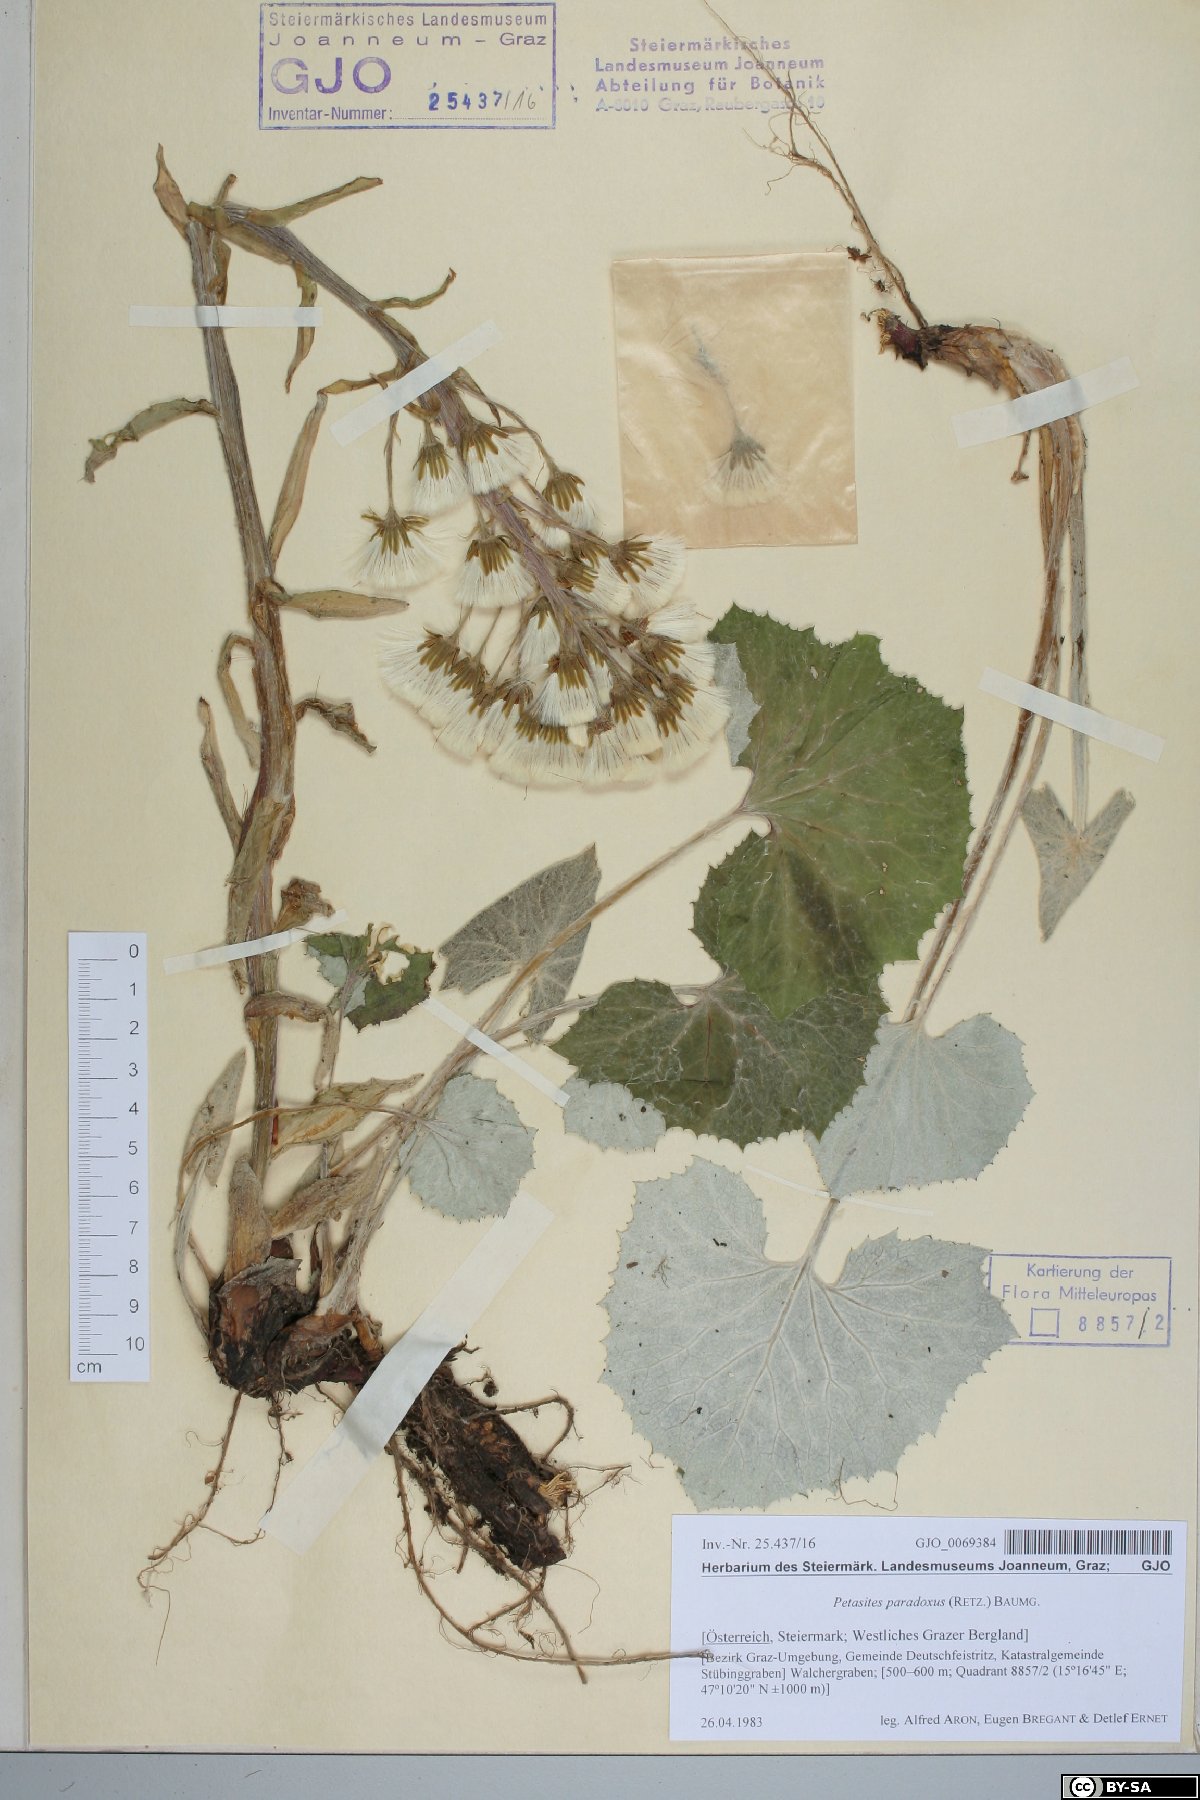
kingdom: Plantae
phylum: Tracheophyta
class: Magnoliopsida
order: Asterales
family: Asteraceae
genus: Petasites
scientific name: Petasites paradoxus
